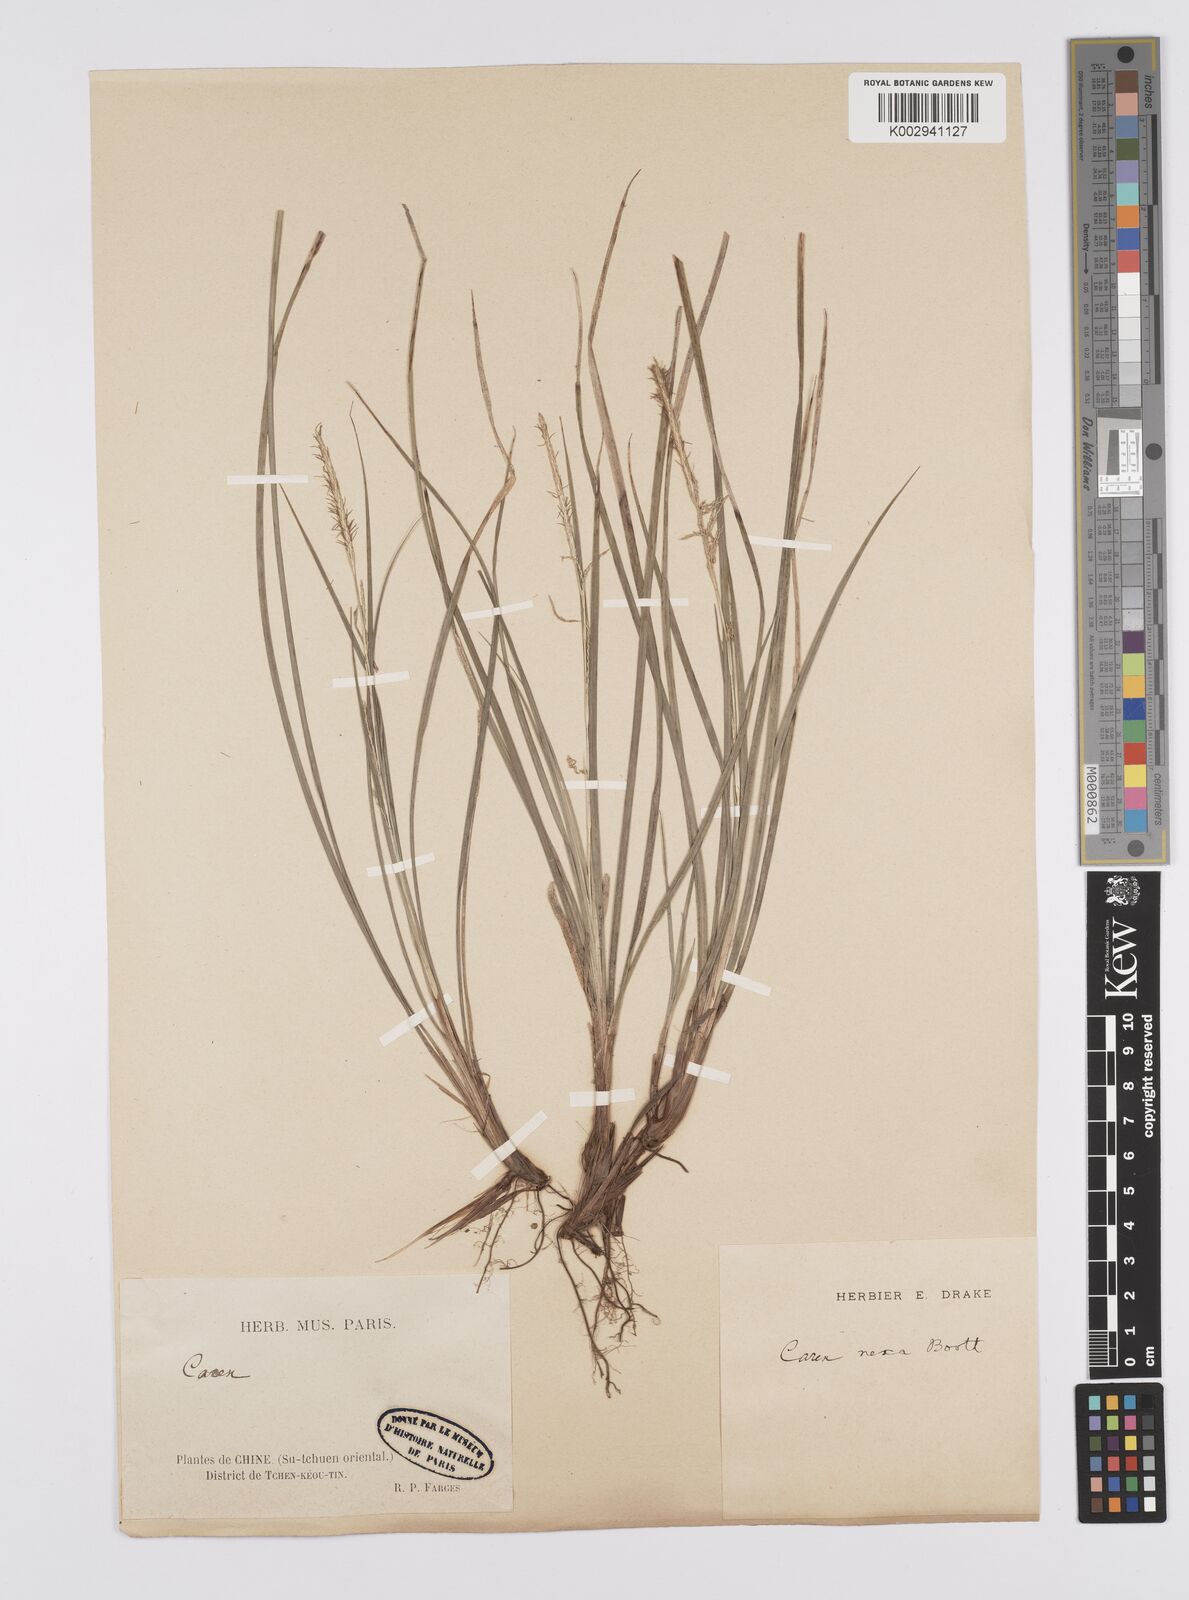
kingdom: Plantae
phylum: Tracheophyta
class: Liliopsida
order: Poales
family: Cyperaceae
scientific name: Cyperaceae
